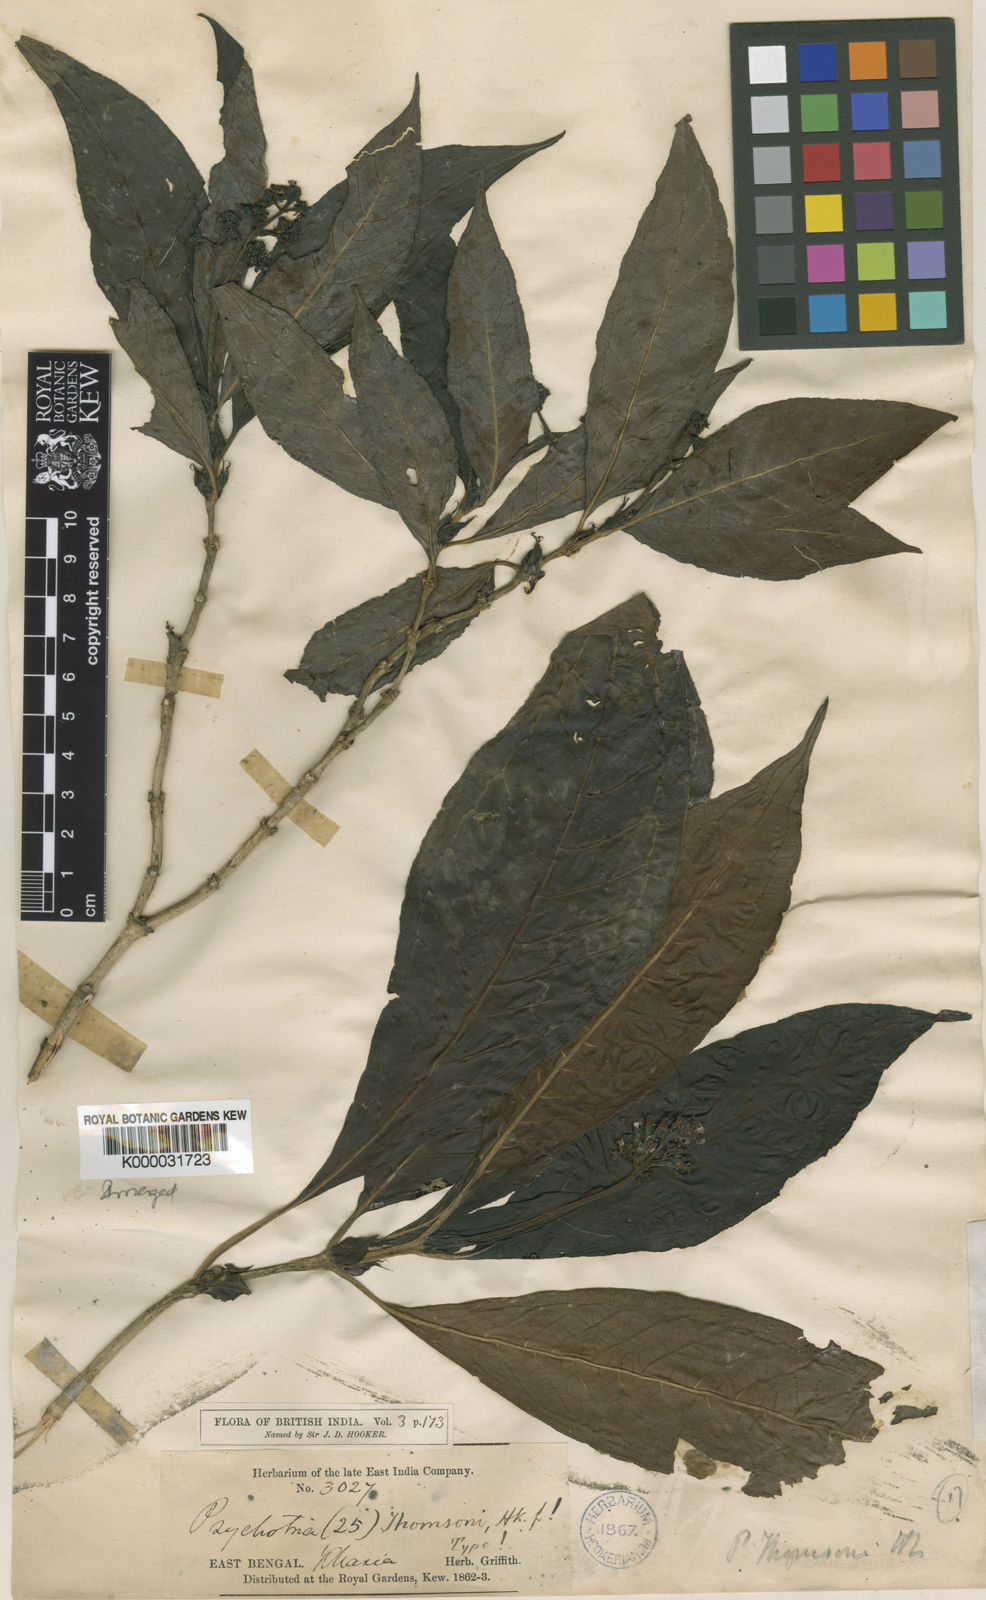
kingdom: Plantae
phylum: Tracheophyta
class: Magnoliopsida
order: Gentianales
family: Rubiaceae
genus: Psychotria
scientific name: Psychotria thomsonii
